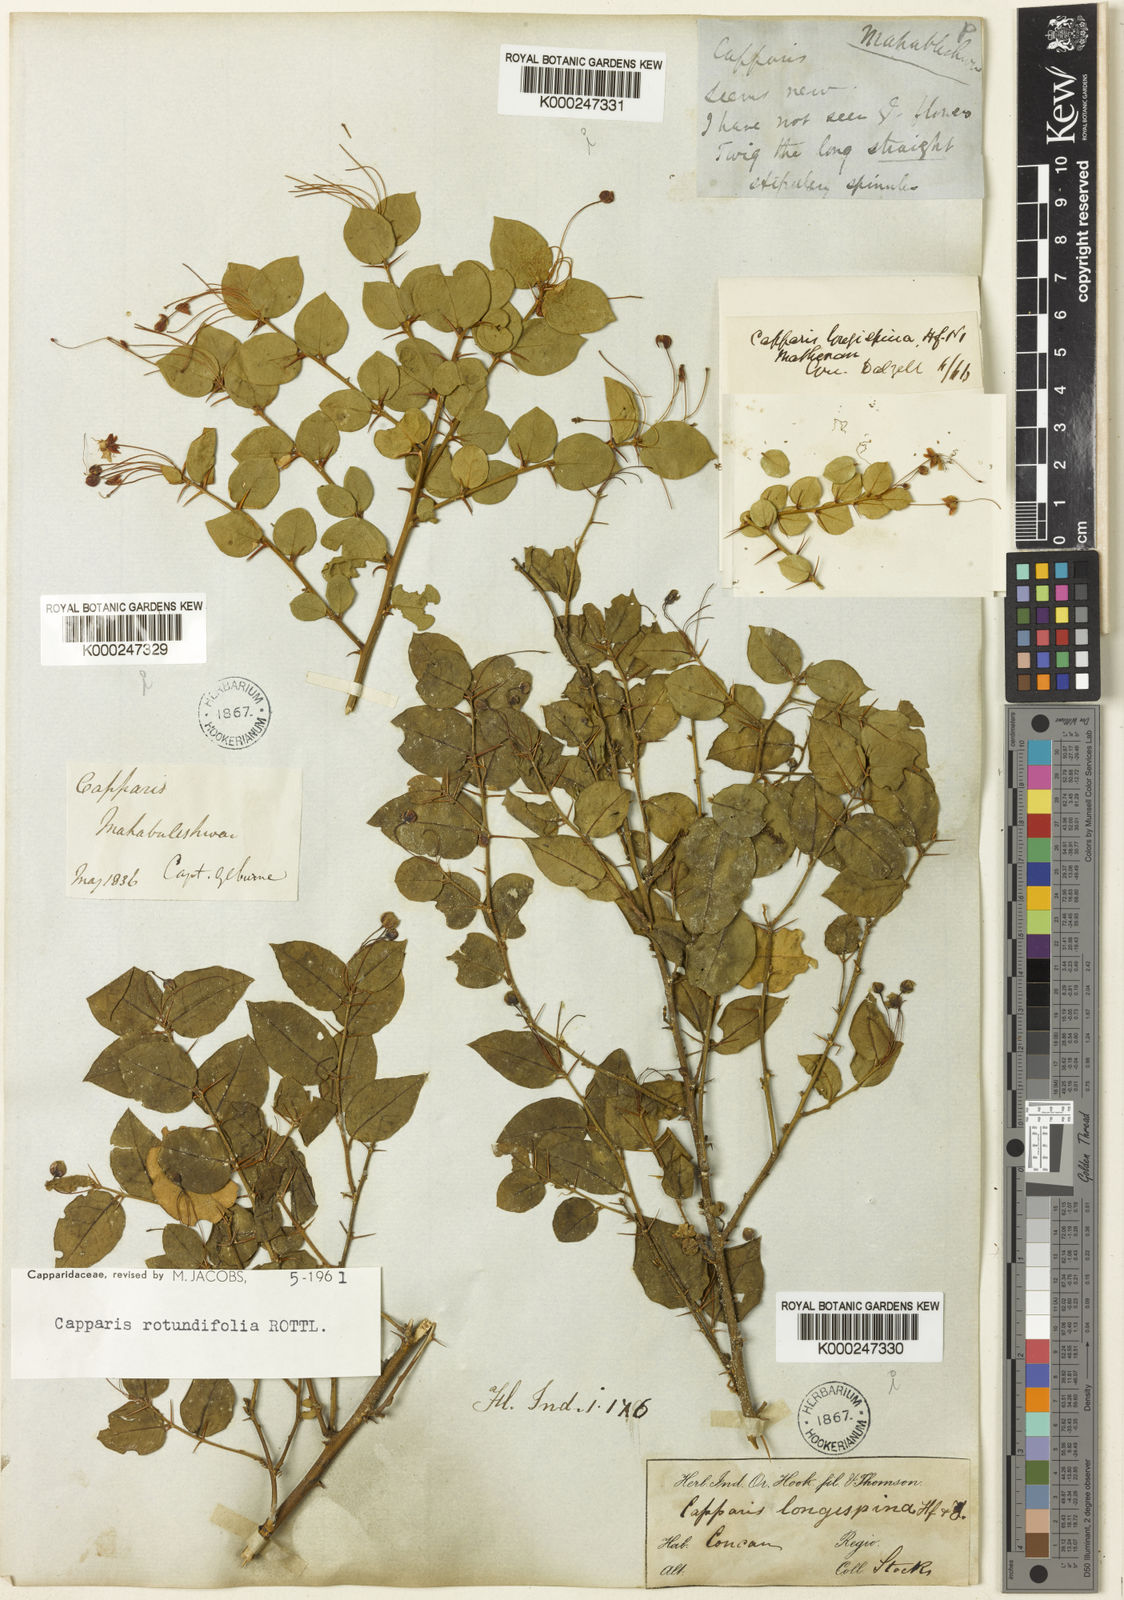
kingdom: Plantae
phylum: Tracheophyta
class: Magnoliopsida
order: Brassicales
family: Capparaceae
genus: Capparis
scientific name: Capparis rotundifolia
